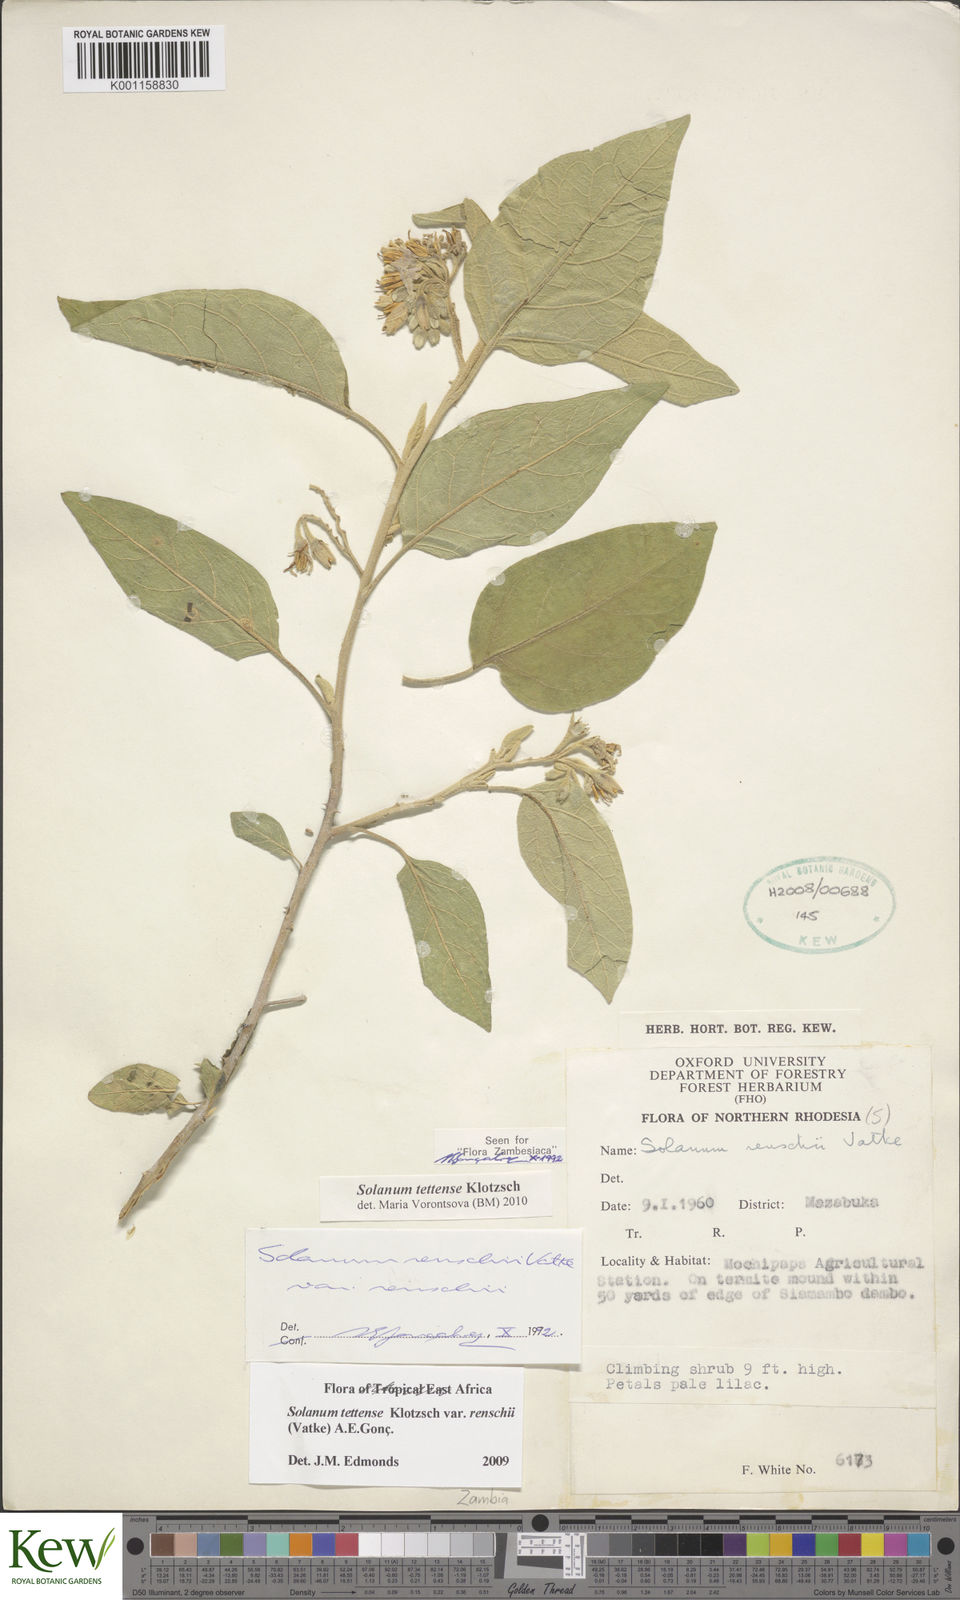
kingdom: Plantae
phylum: Tracheophyta
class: Magnoliopsida
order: Solanales
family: Solanaceae
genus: Solanum
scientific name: Solanum tettense
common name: Mozambique bitter apple
